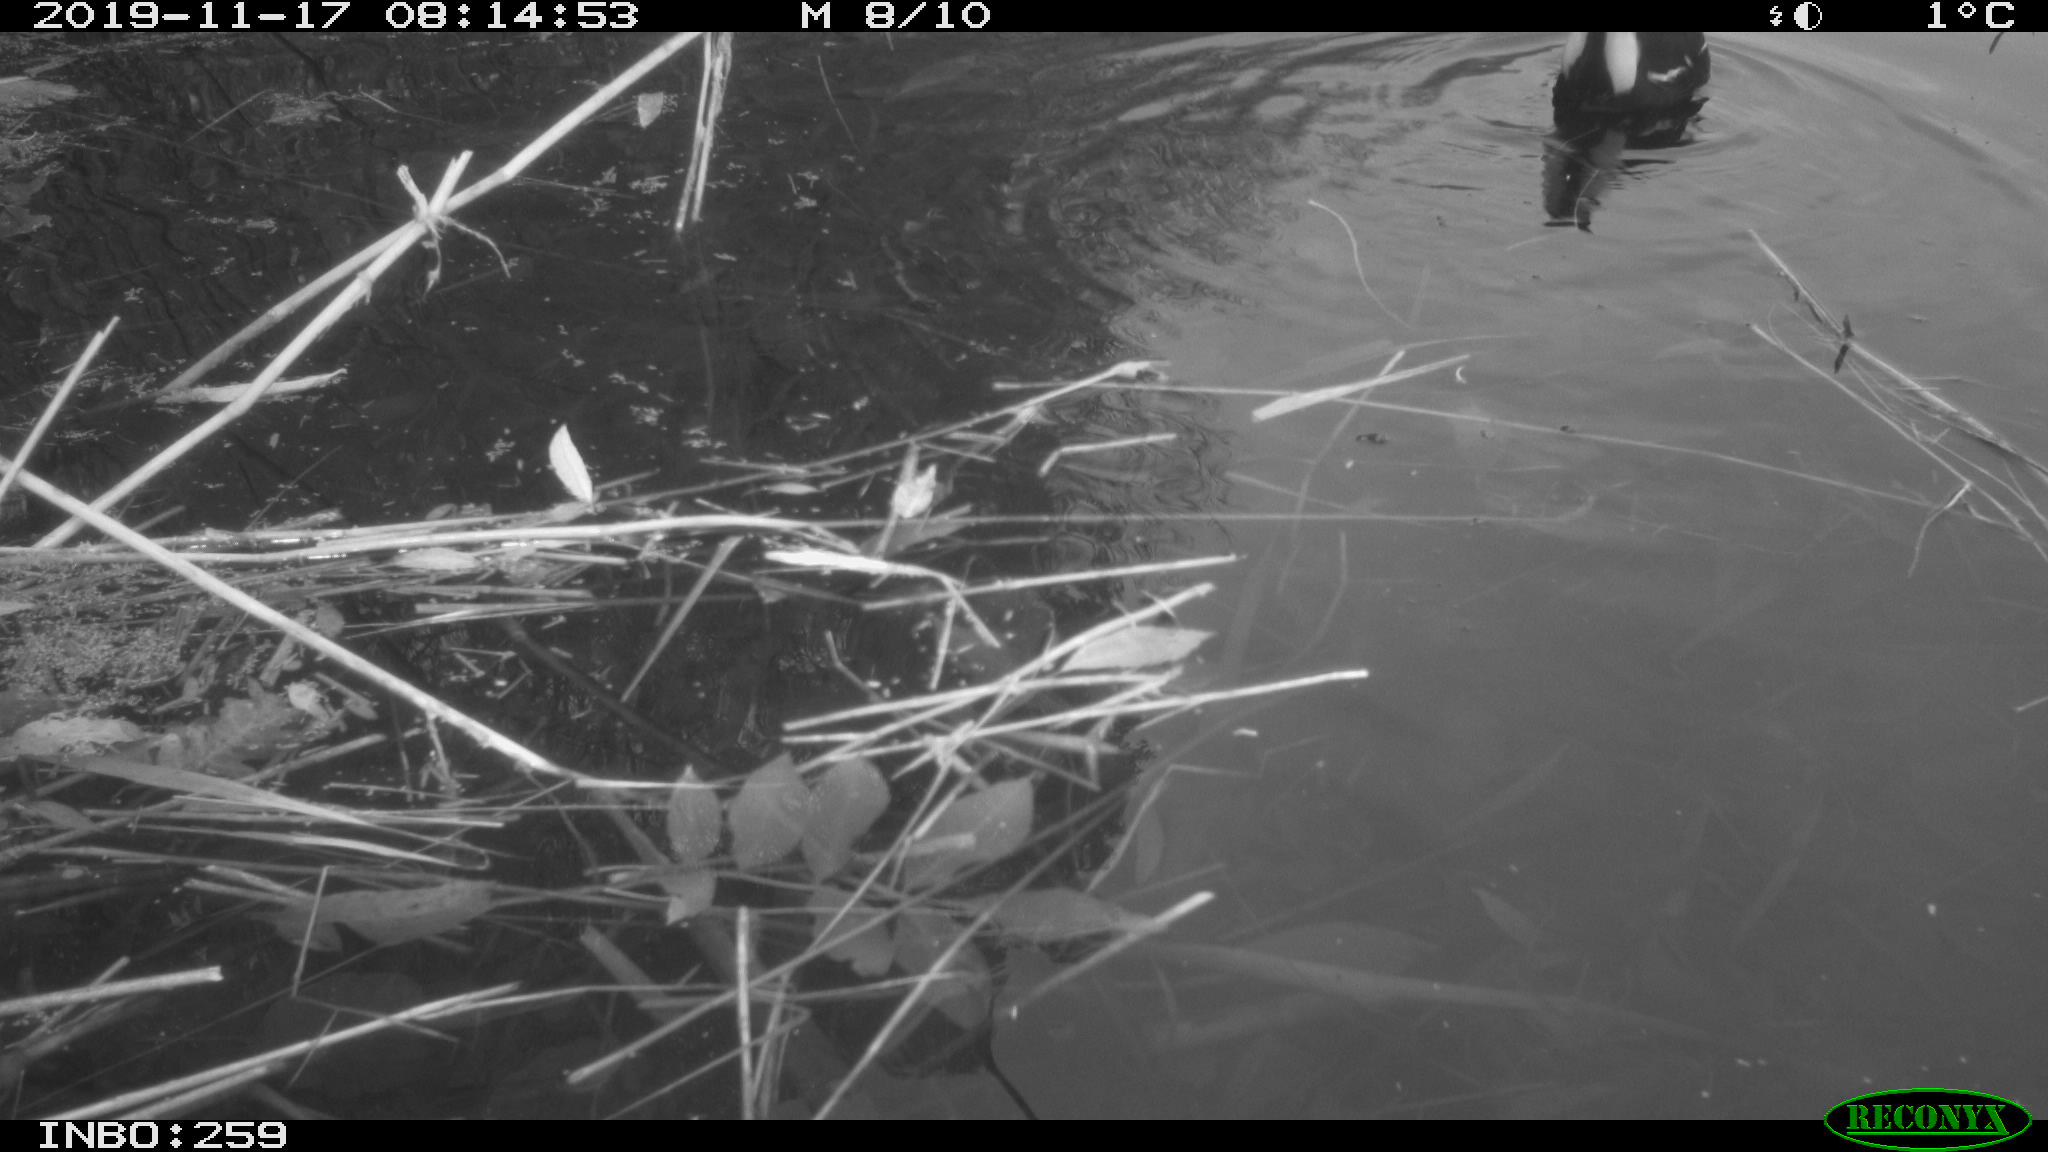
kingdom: Animalia
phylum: Chordata
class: Aves
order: Gruiformes
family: Rallidae
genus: Gallinula
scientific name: Gallinula chloropus
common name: Common moorhen
